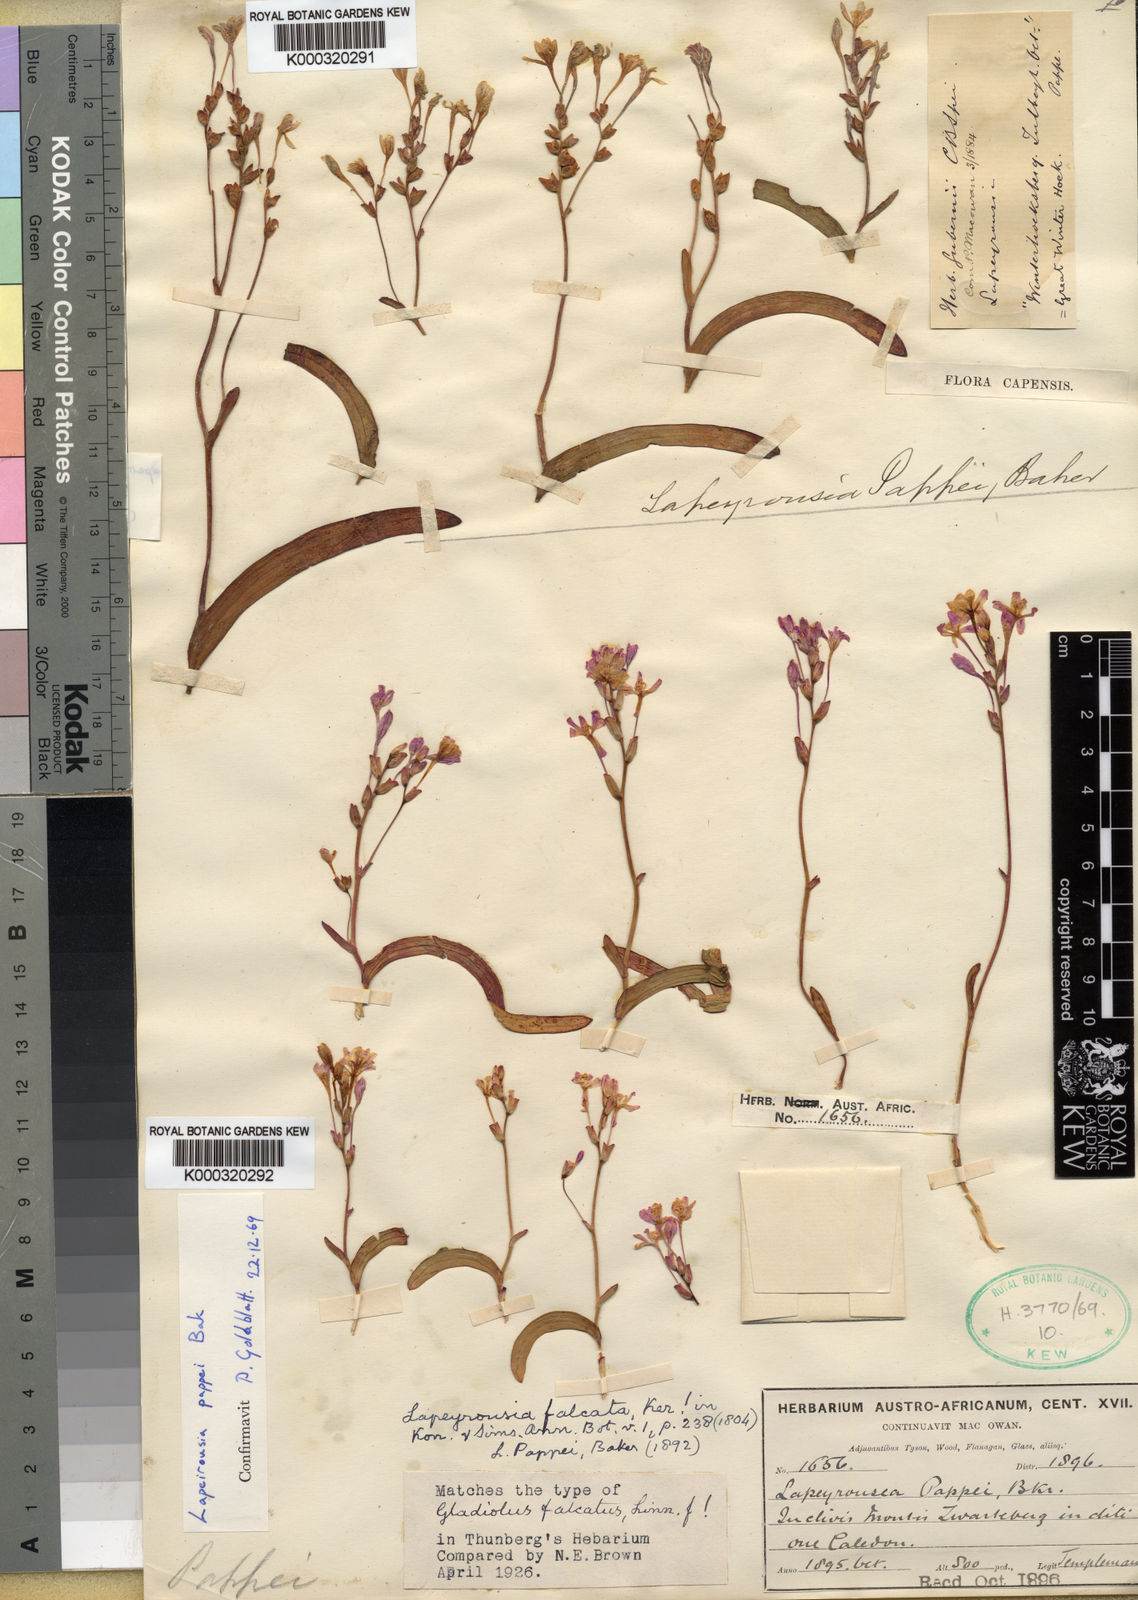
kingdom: Plantae
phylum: Tracheophyta
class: Liliopsida
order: Asparagales
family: Iridaceae
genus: Codonorhiza
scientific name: Codonorhiza falcata
